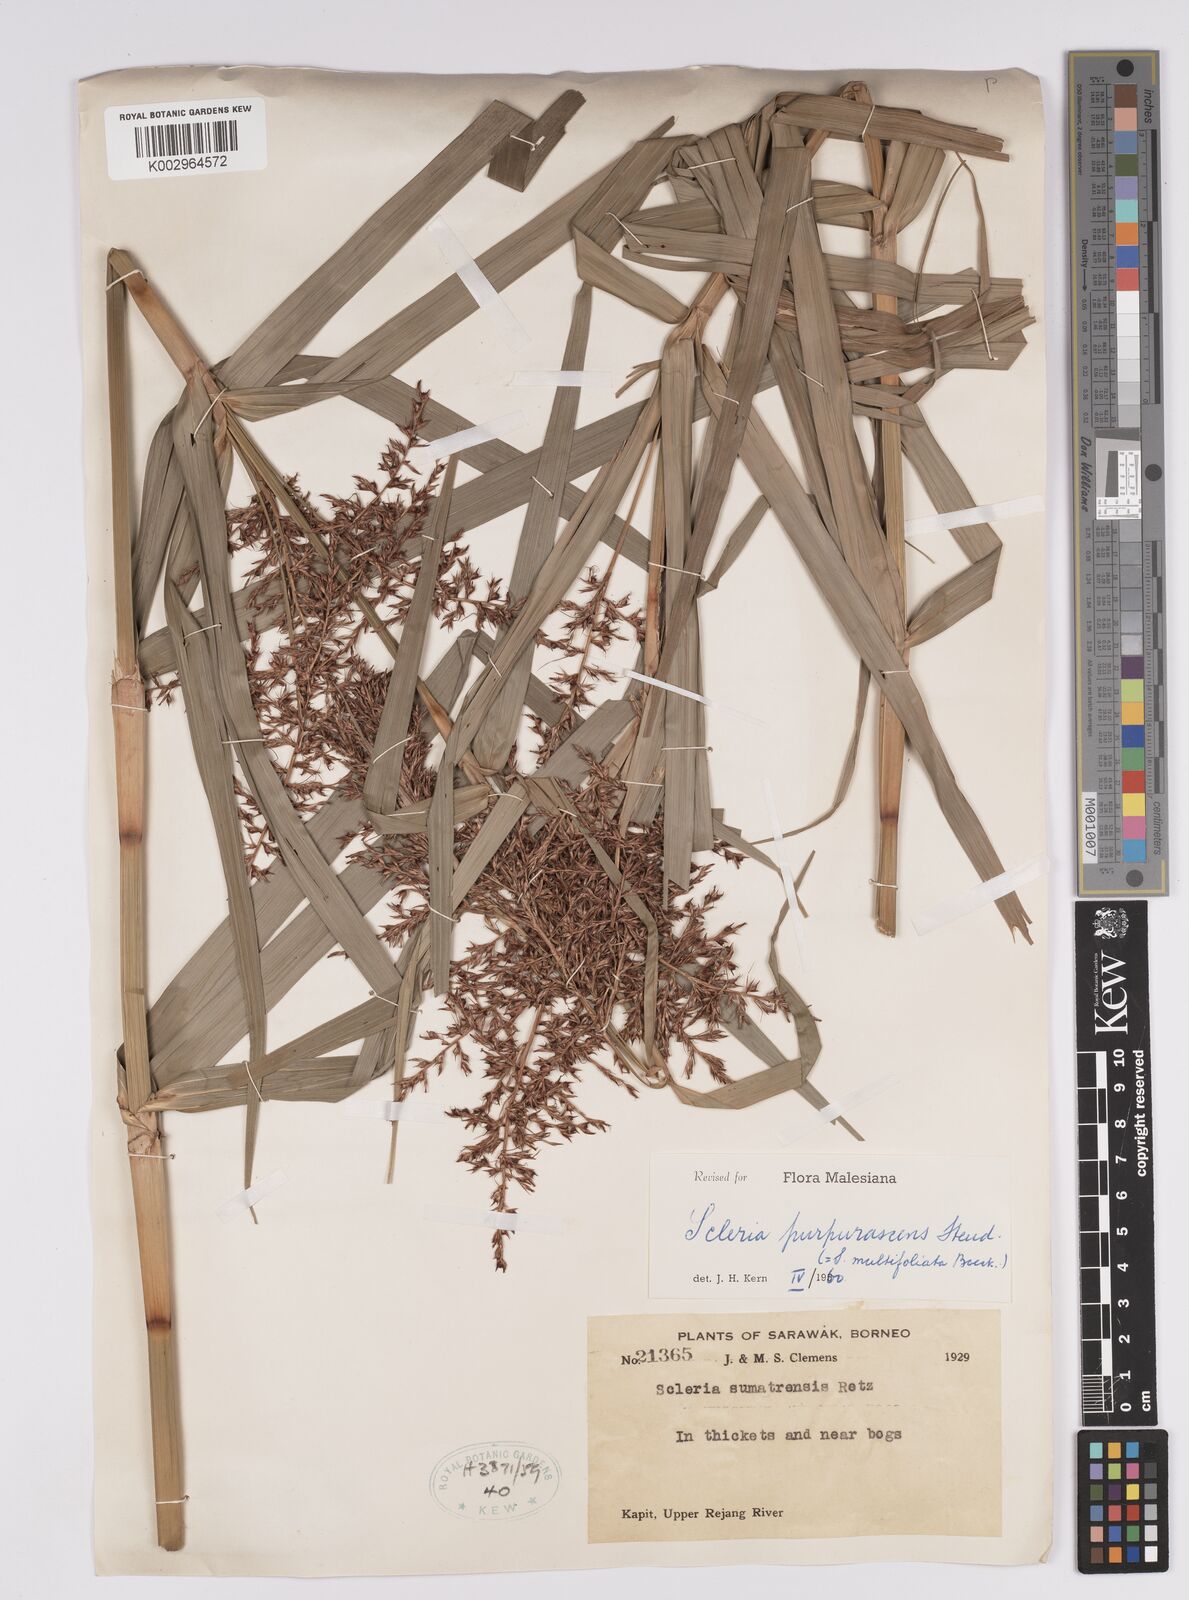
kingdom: Plantae
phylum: Tracheophyta
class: Liliopsida
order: Poales
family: Cyperaceae
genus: Scleria
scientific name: Scleria purpurascens
